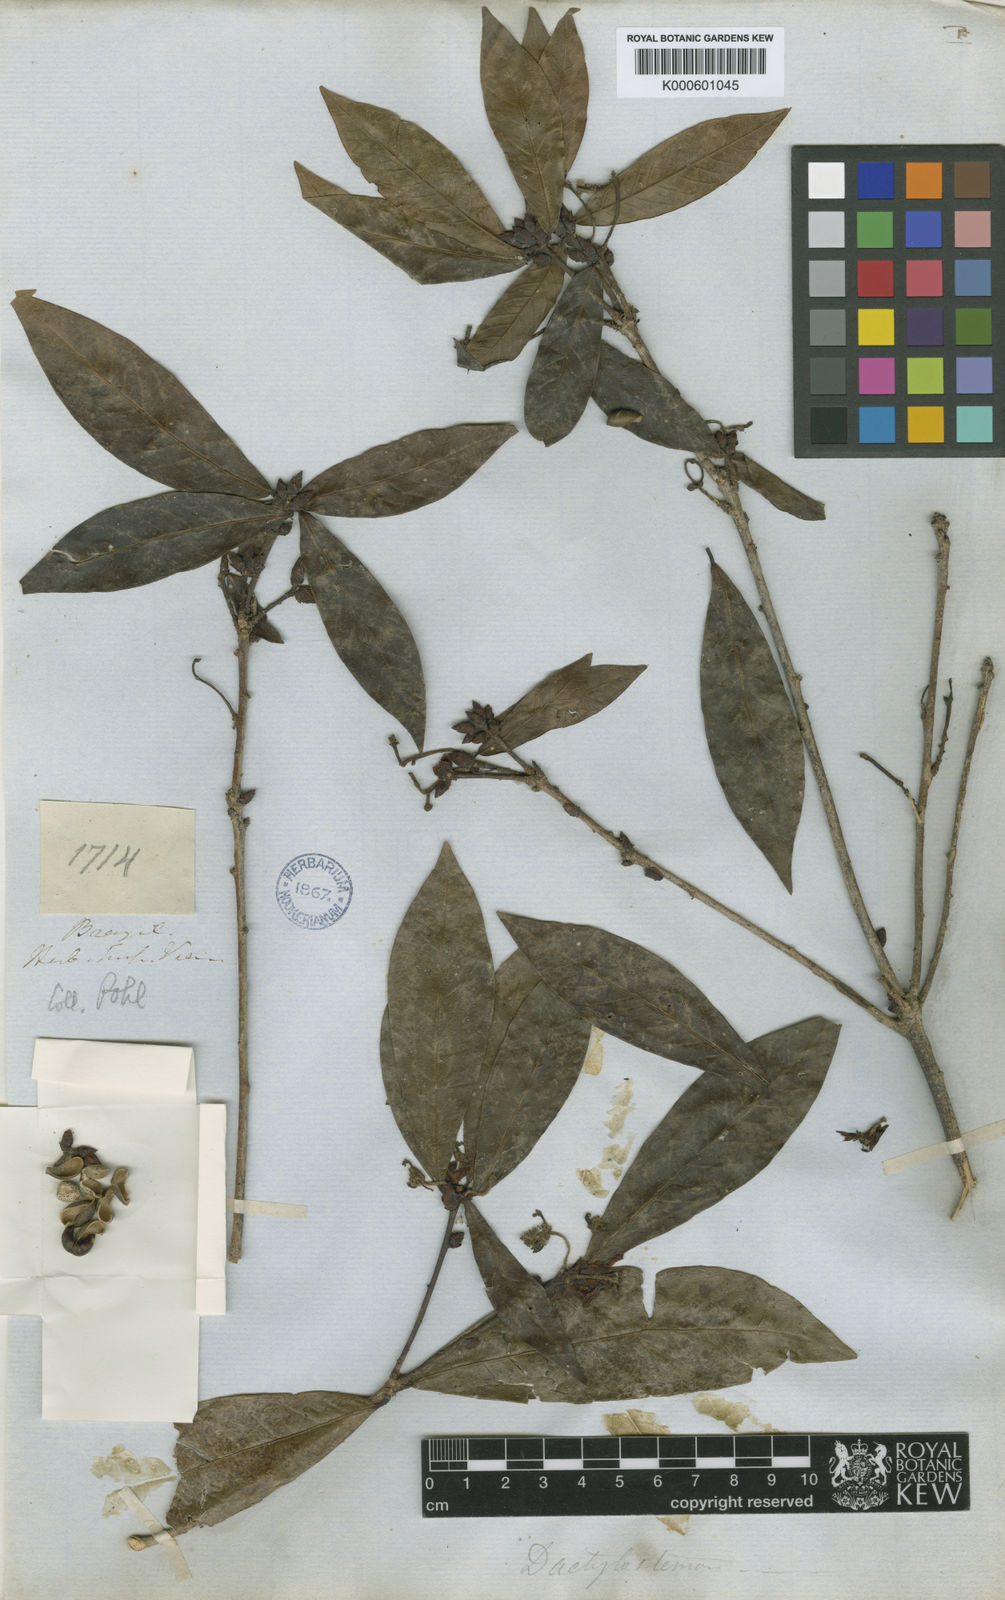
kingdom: Plantae
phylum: Tracheophyta
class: Magnoliopsida
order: Malpighiales
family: Euphorbiaceae
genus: Actinostemon
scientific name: Actinostemon
